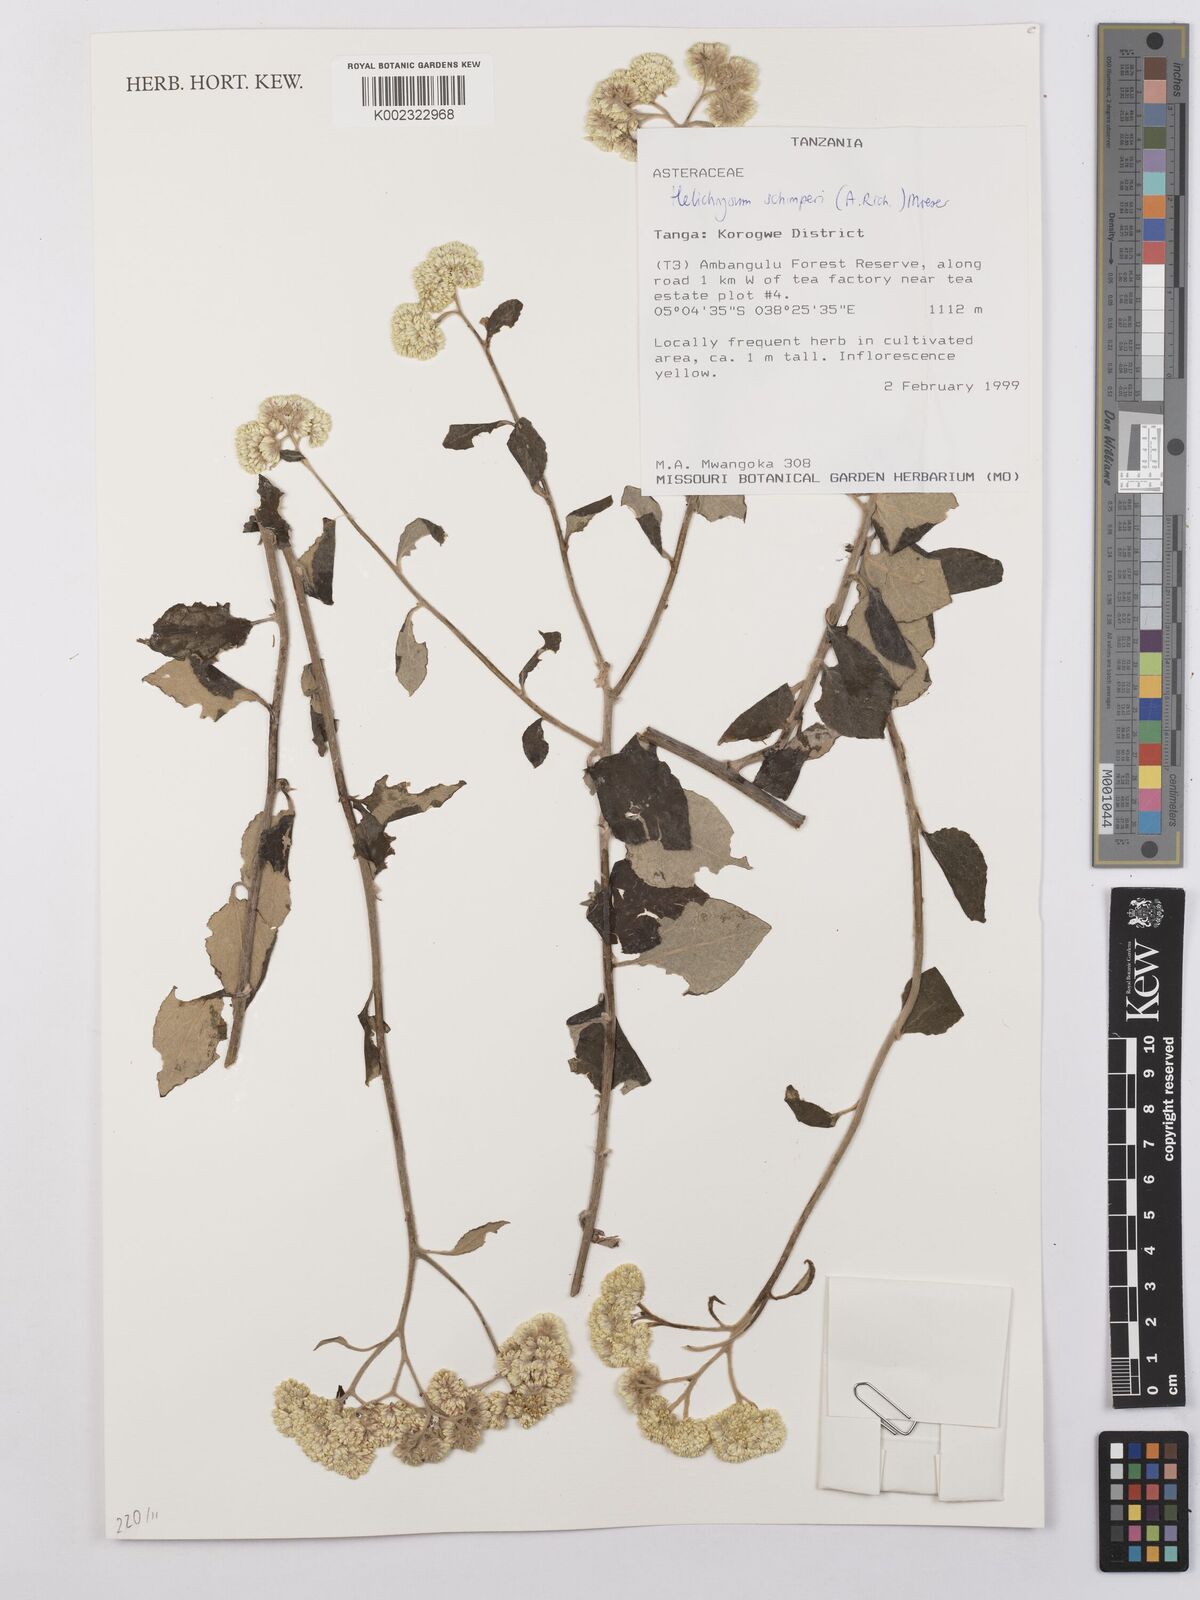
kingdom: Plantae
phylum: Tracheophyta
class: Magnoliopsida
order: Asterales
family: Asteraceae
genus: Helichrysum
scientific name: Helichrysum schimperi
